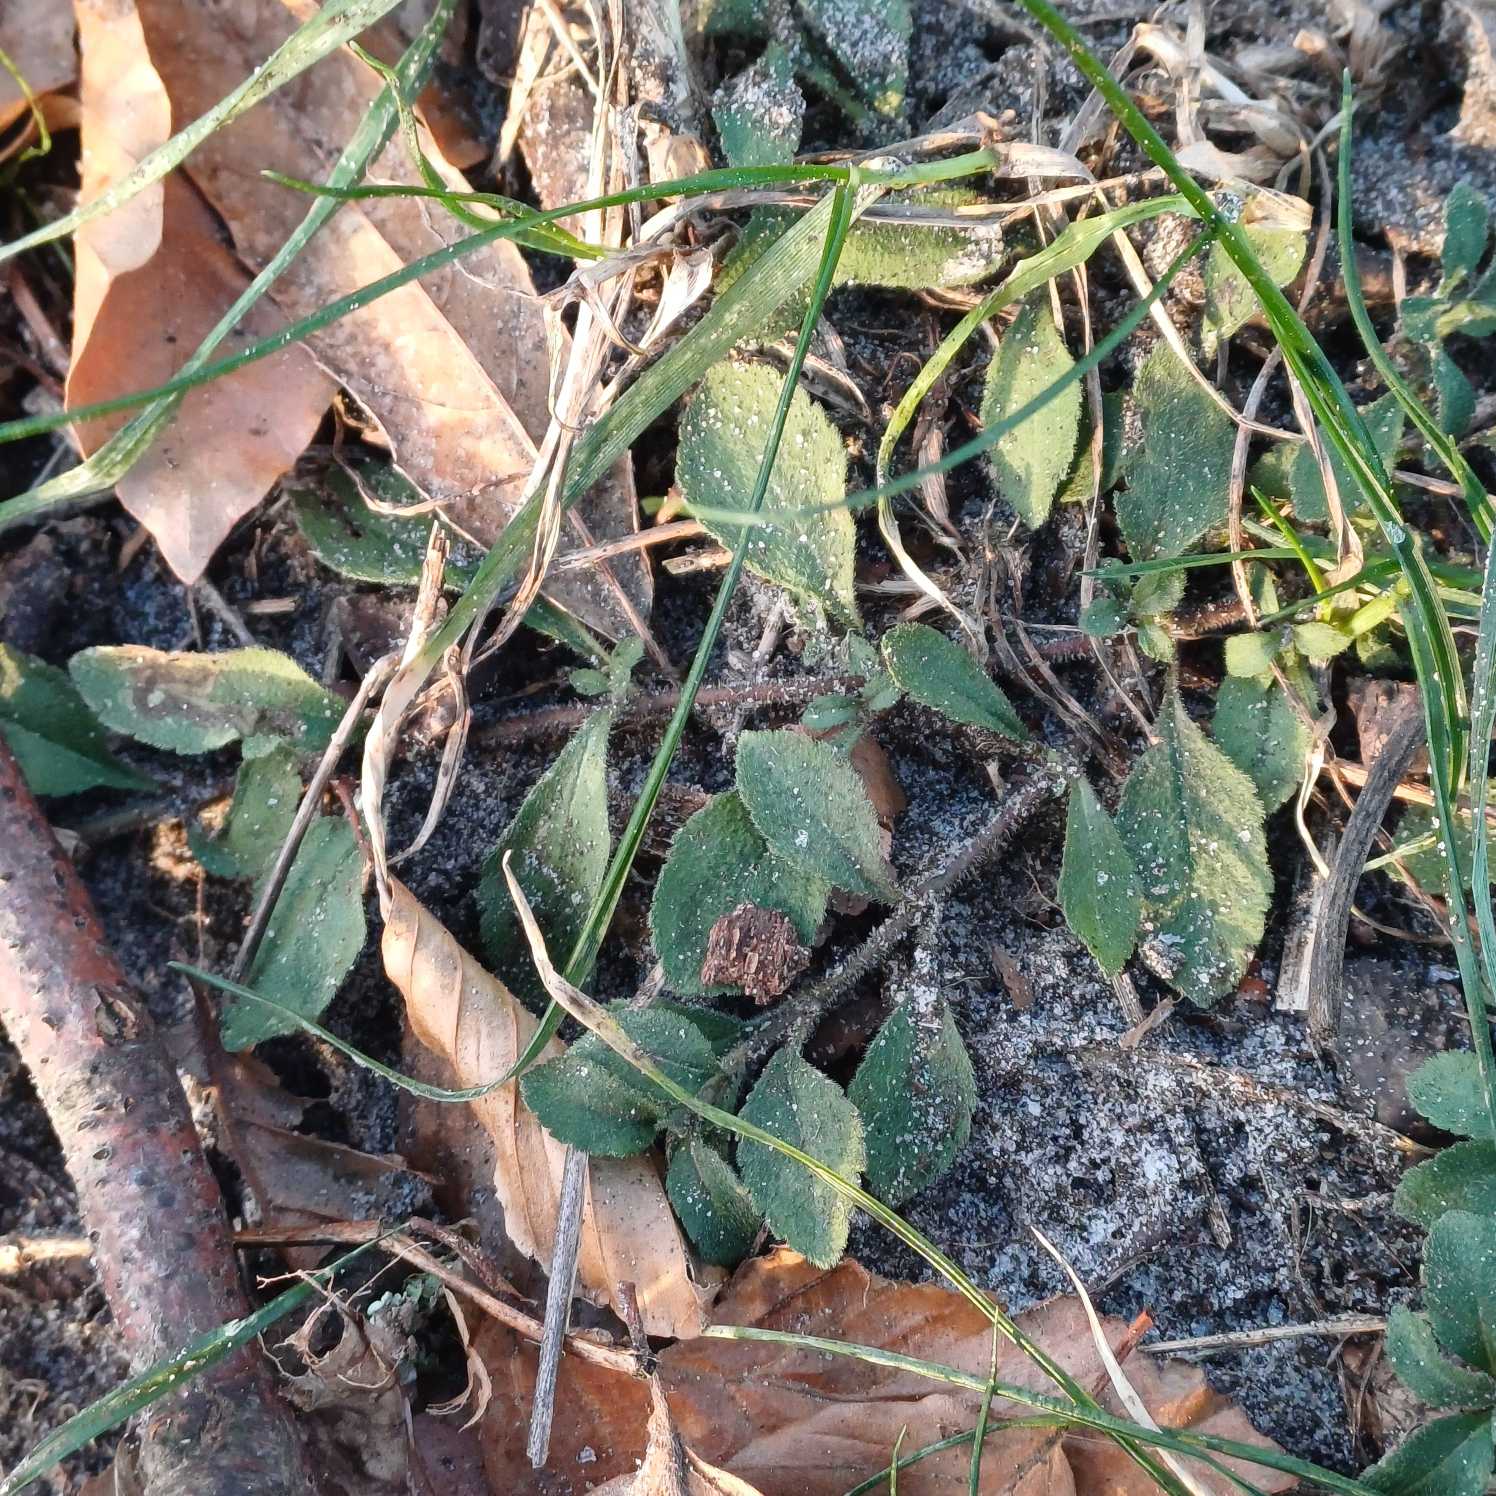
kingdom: Plantae
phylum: Tracheophyta
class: Magnoliopsida
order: Lamiales
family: Plantaginaceae
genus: Veronica
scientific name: Veronica officinalis
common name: Læge-ærenpris
